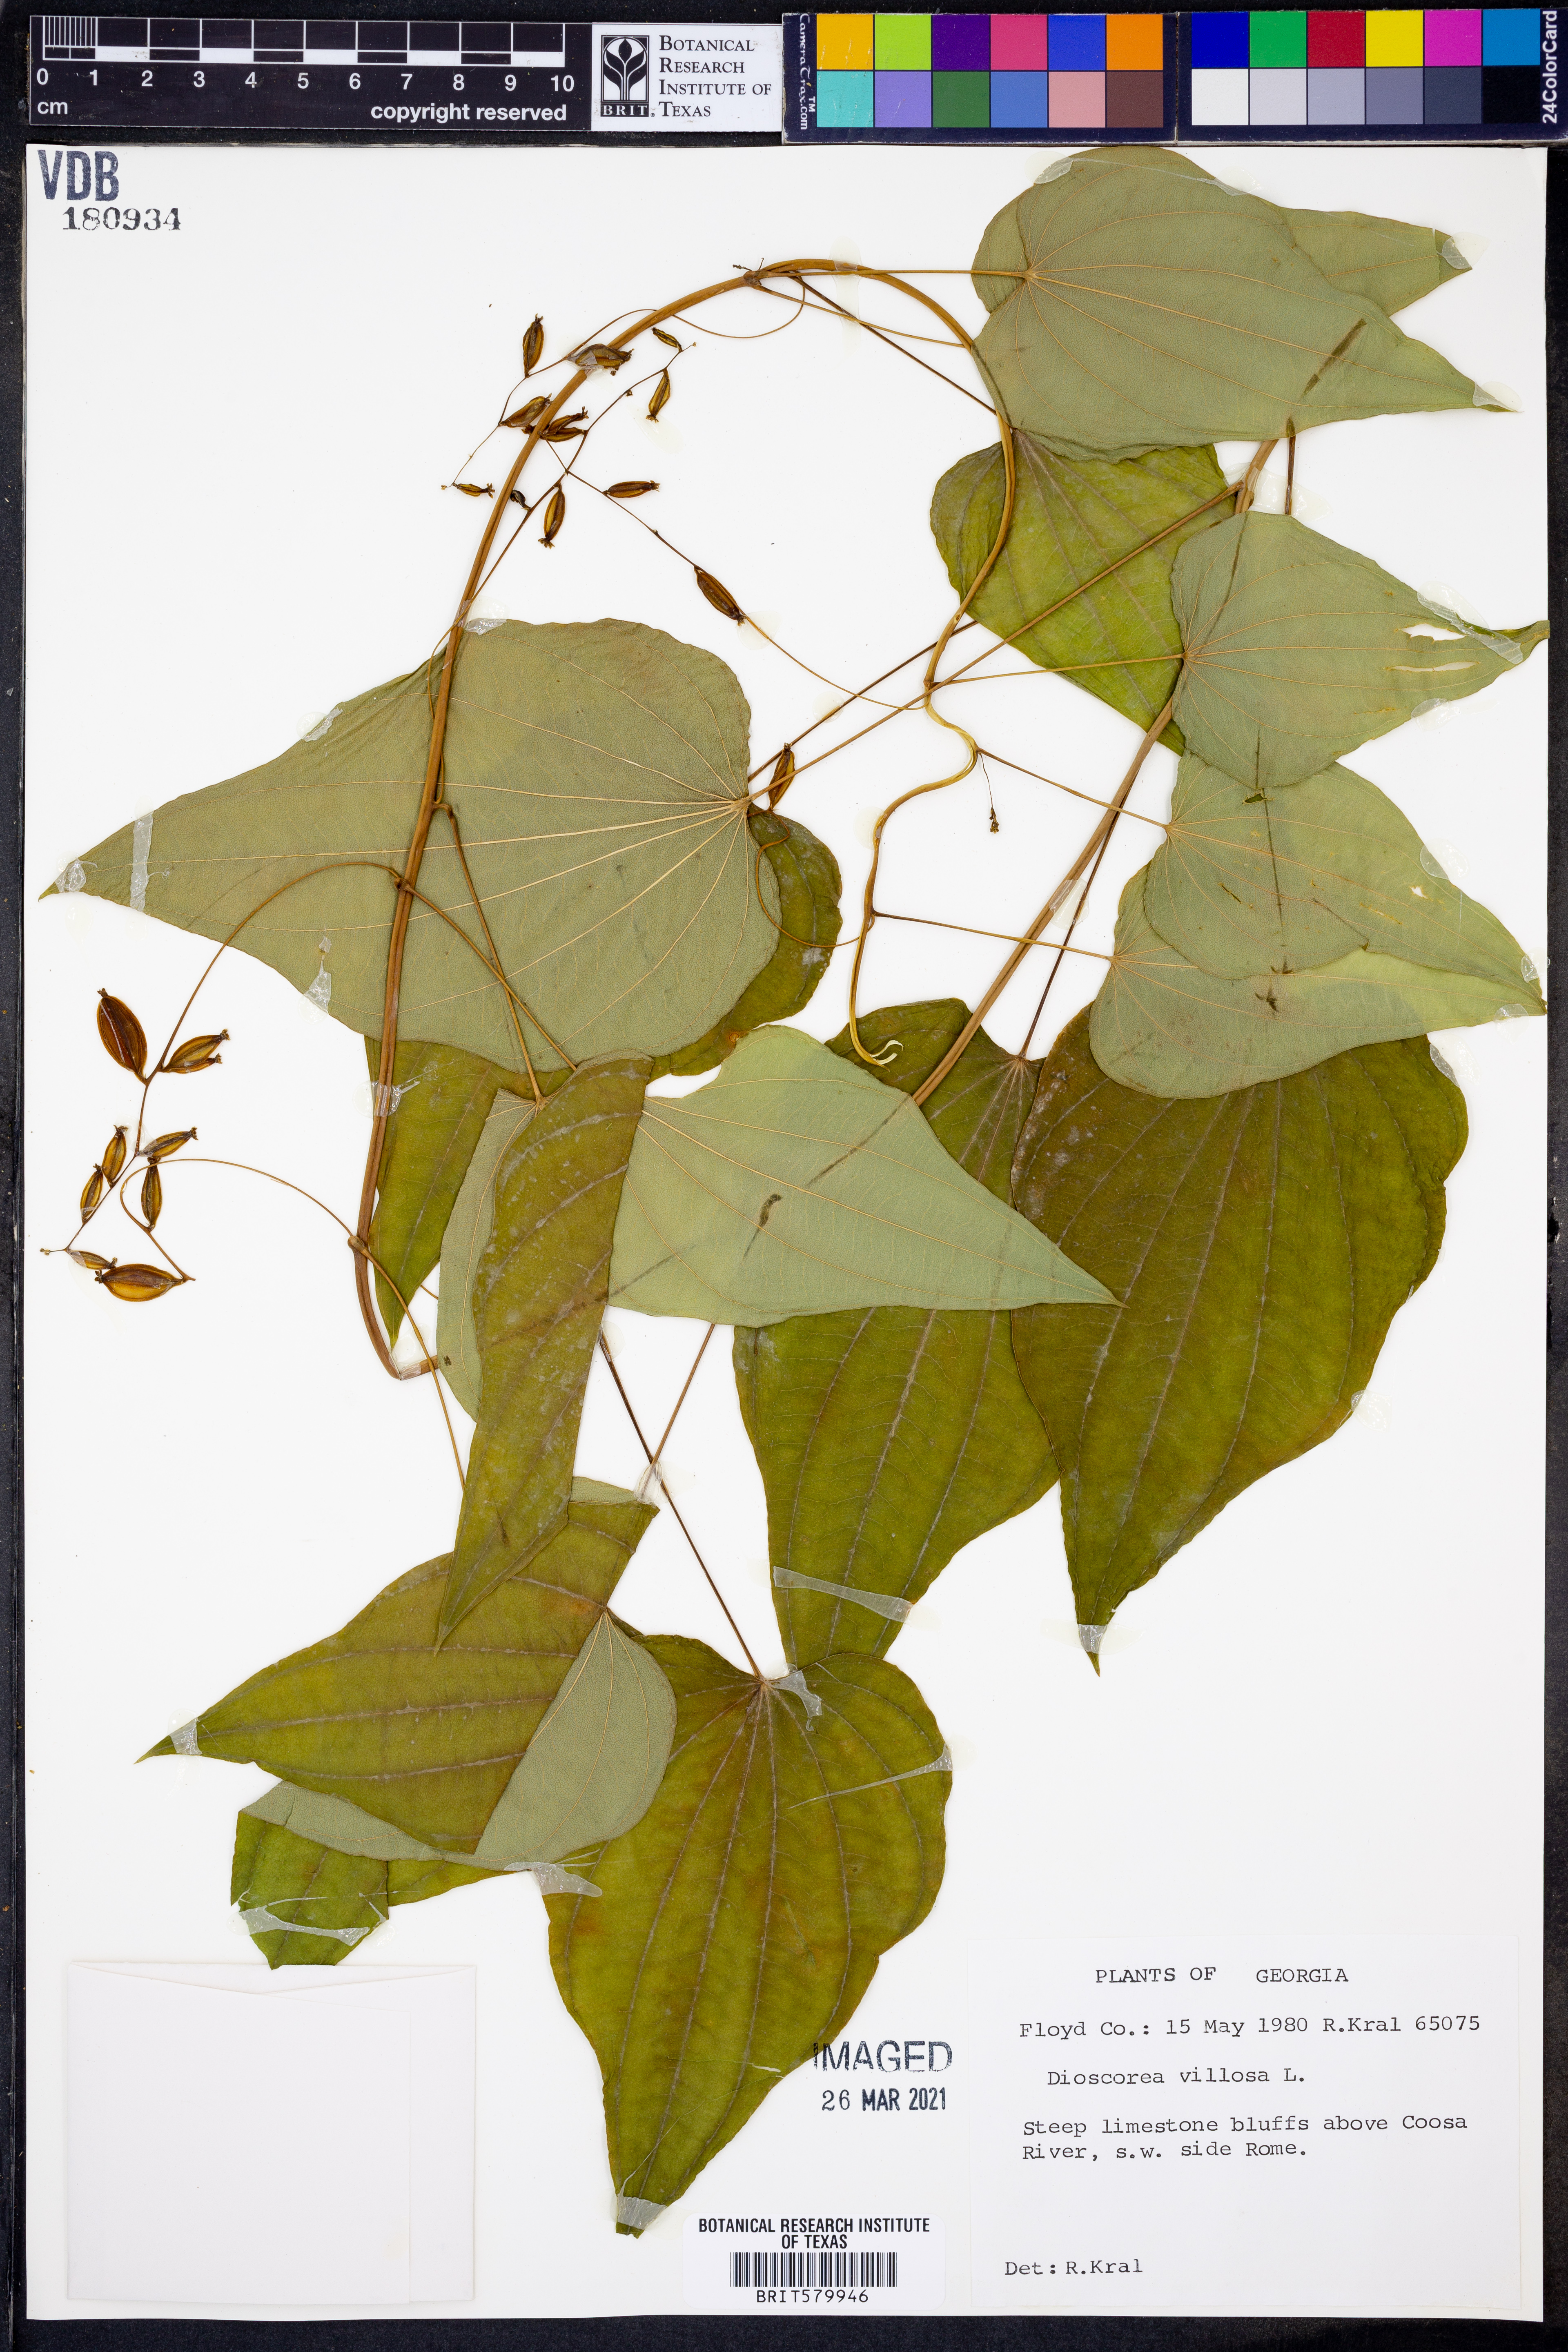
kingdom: Plantae
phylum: Tracheophyta
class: Liliopsida
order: Dioscoreales
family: Dioscoreaceae
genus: Dioscorea
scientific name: Dioscorea villosa
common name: Wild yam
